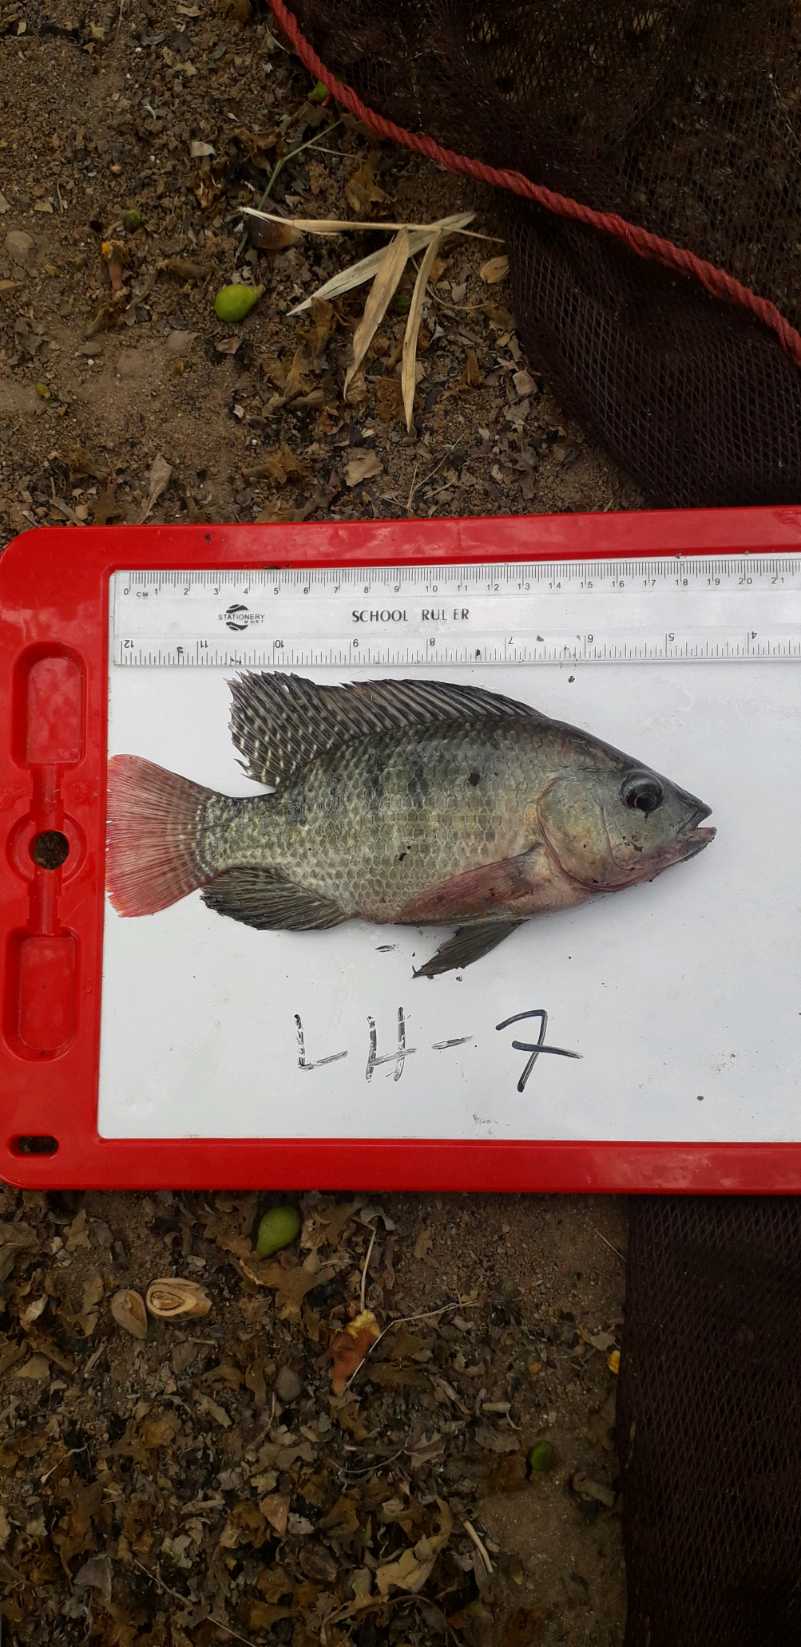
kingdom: Animalia
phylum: Chordata
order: Perciformes
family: Cichlidae
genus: Oreochromis
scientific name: Oreochromis niloticus
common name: Nile tilapia
